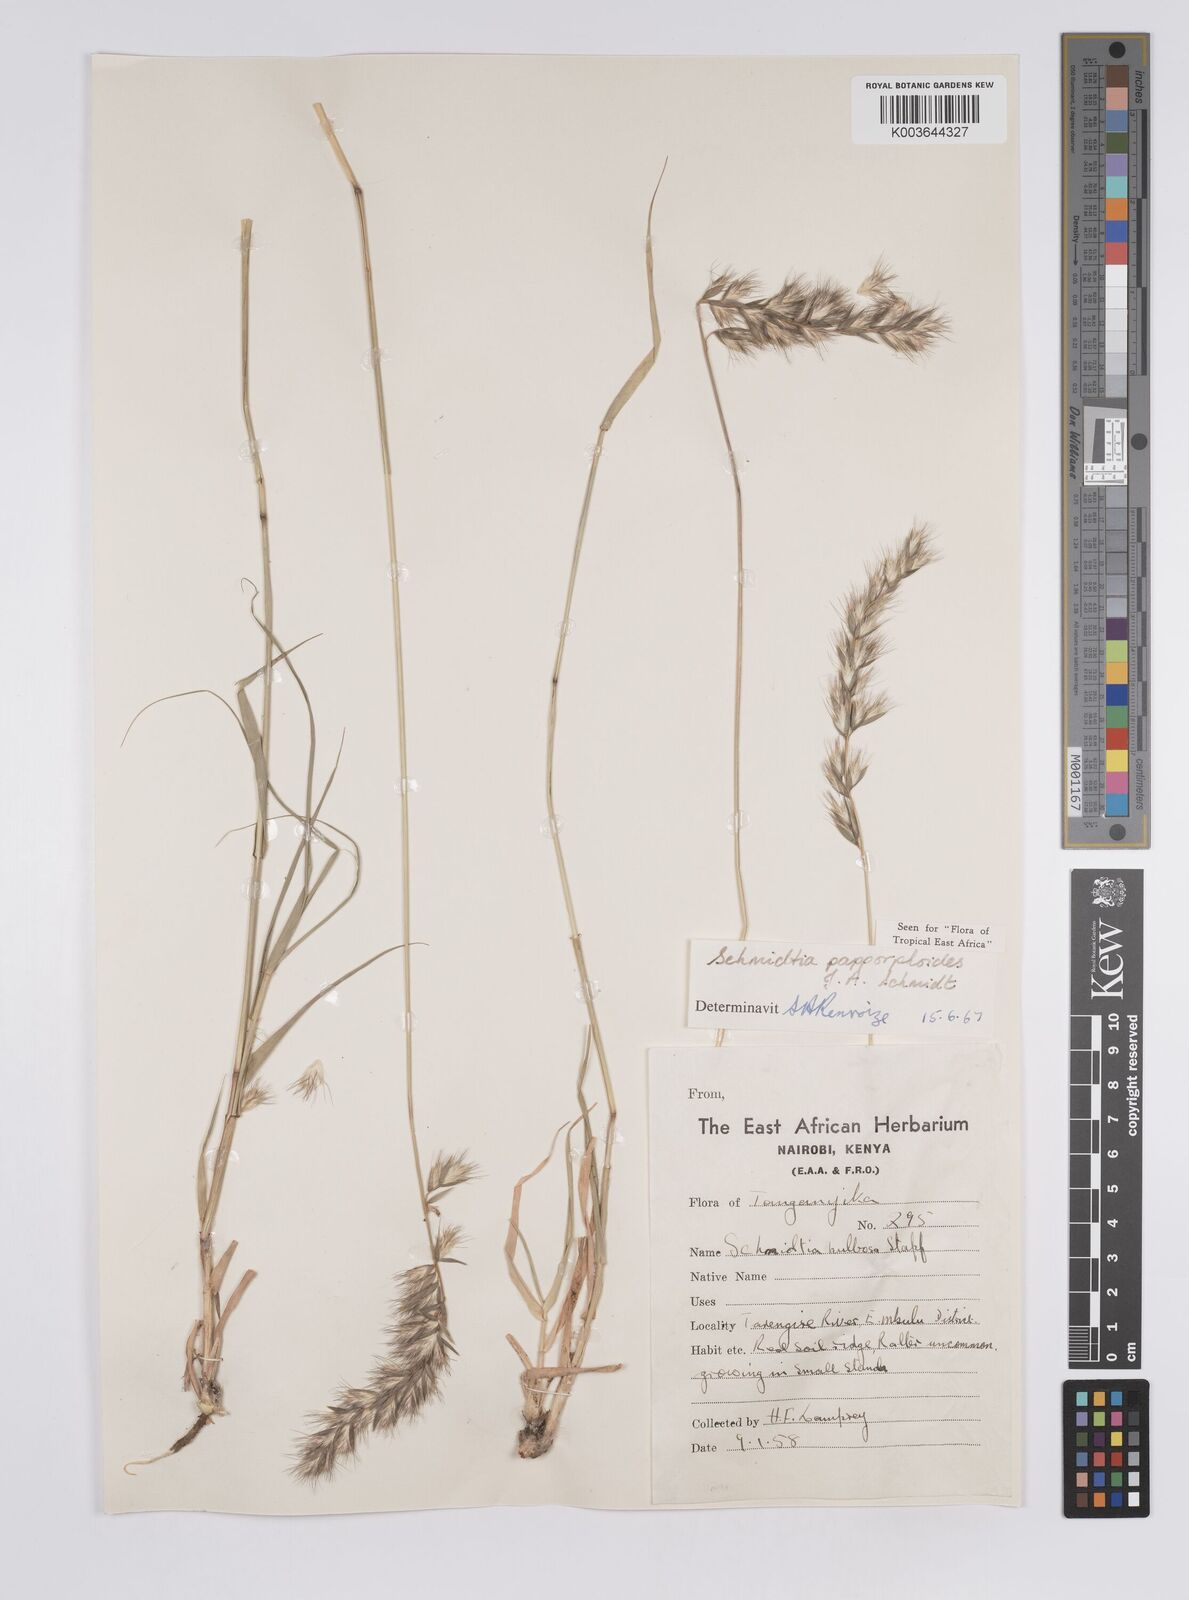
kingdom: Plantae
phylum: Tracheophyta
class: Liliopsida
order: Poales
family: Poaceae
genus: Schmidtia
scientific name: Schmidtia pappophoroides
